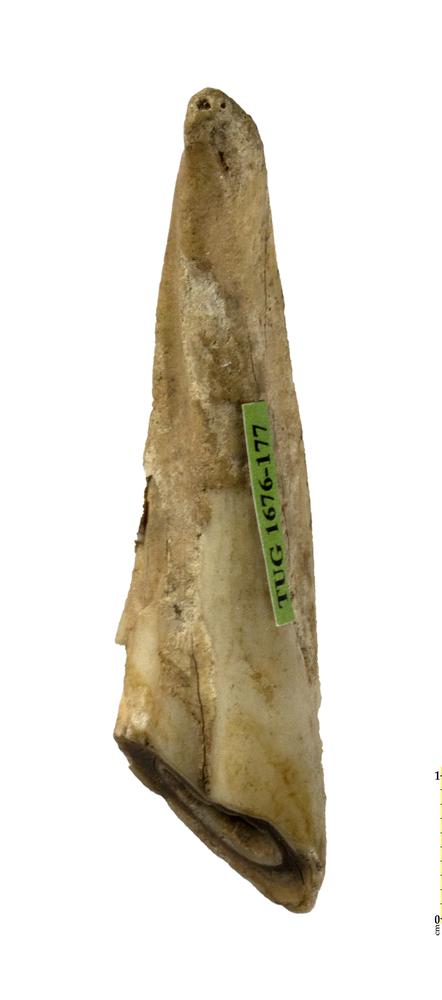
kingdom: Animalia
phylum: Chordata
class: Mammalia
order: Perissodactyla
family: Equidae
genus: Equus
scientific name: Equus ferus
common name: Russian wild horse
